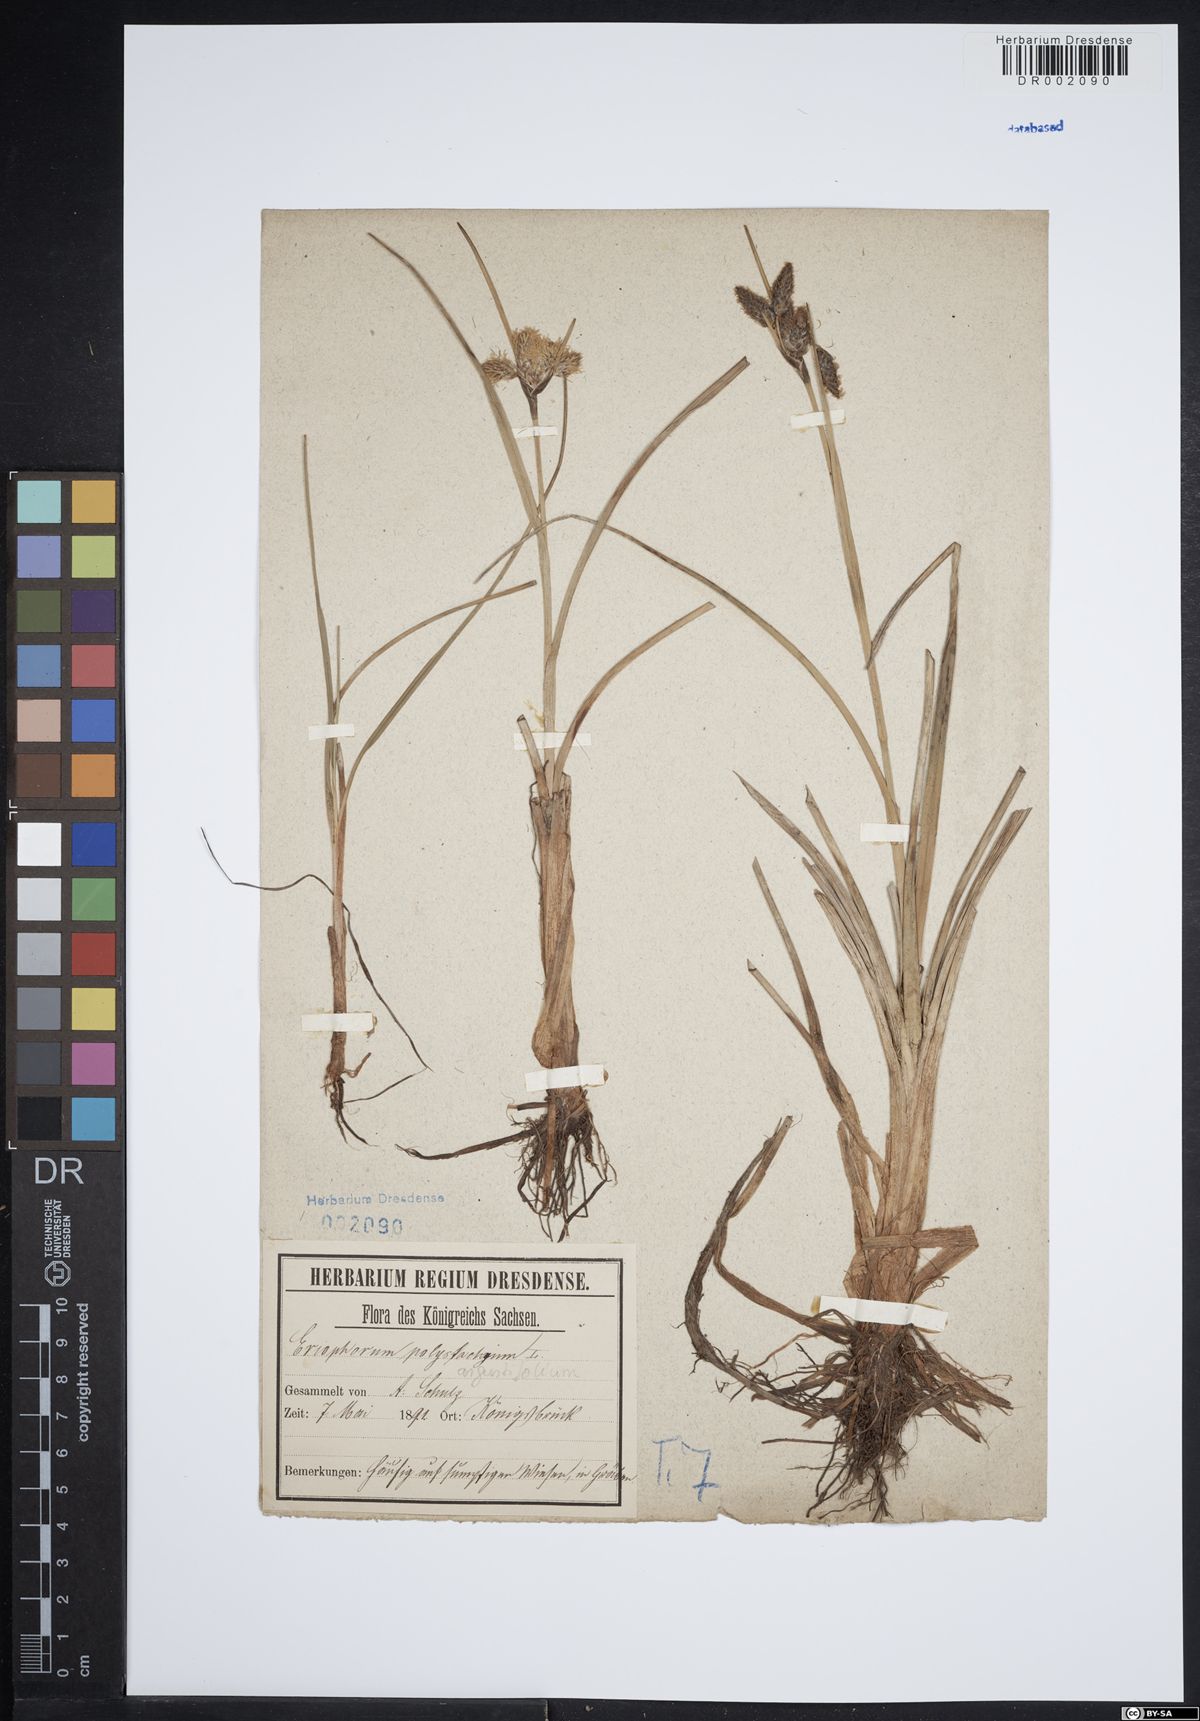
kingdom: Plantae
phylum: Tracheophyta
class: Liliopsida
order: Poales
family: Cyperaceae
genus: Eriophorum
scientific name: Eriophorum angustifolium
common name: Common cottongrass
